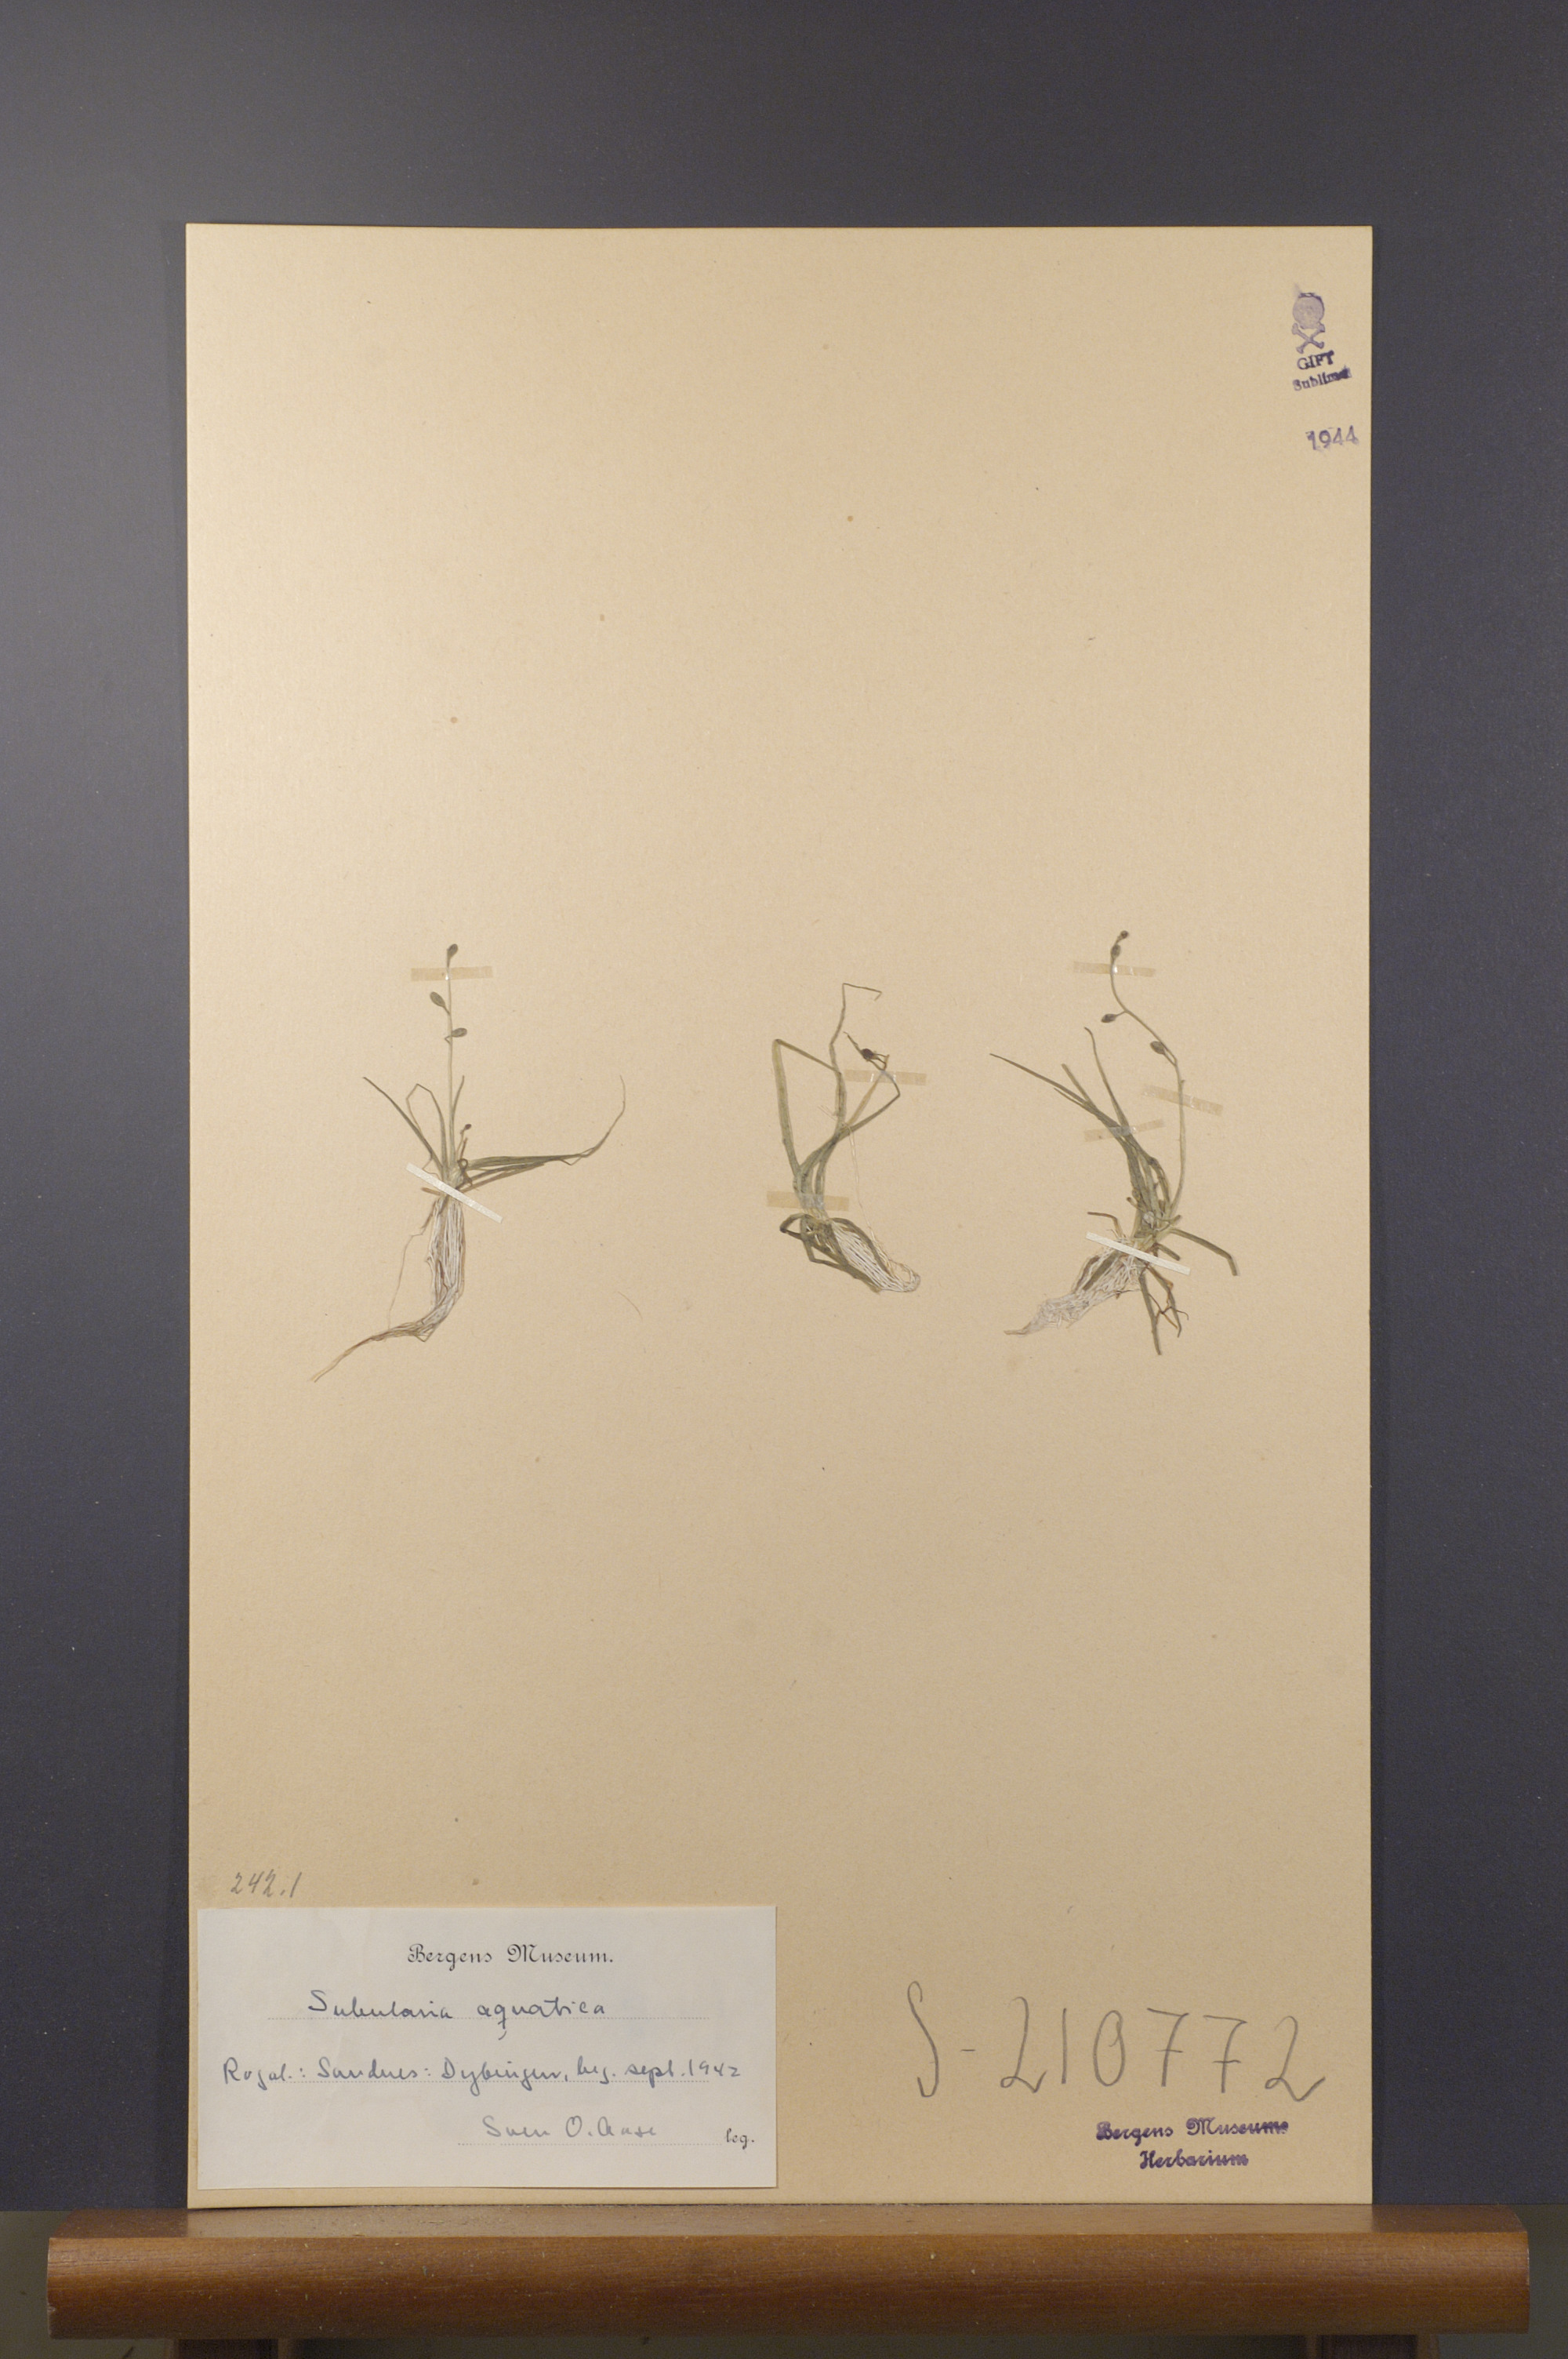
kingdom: Plantae
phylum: Tracheophyta
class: Magnoliopsida
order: Brassicales
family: Brassicaceae
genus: Subularia
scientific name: Subularia aquatica
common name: Awlwort
